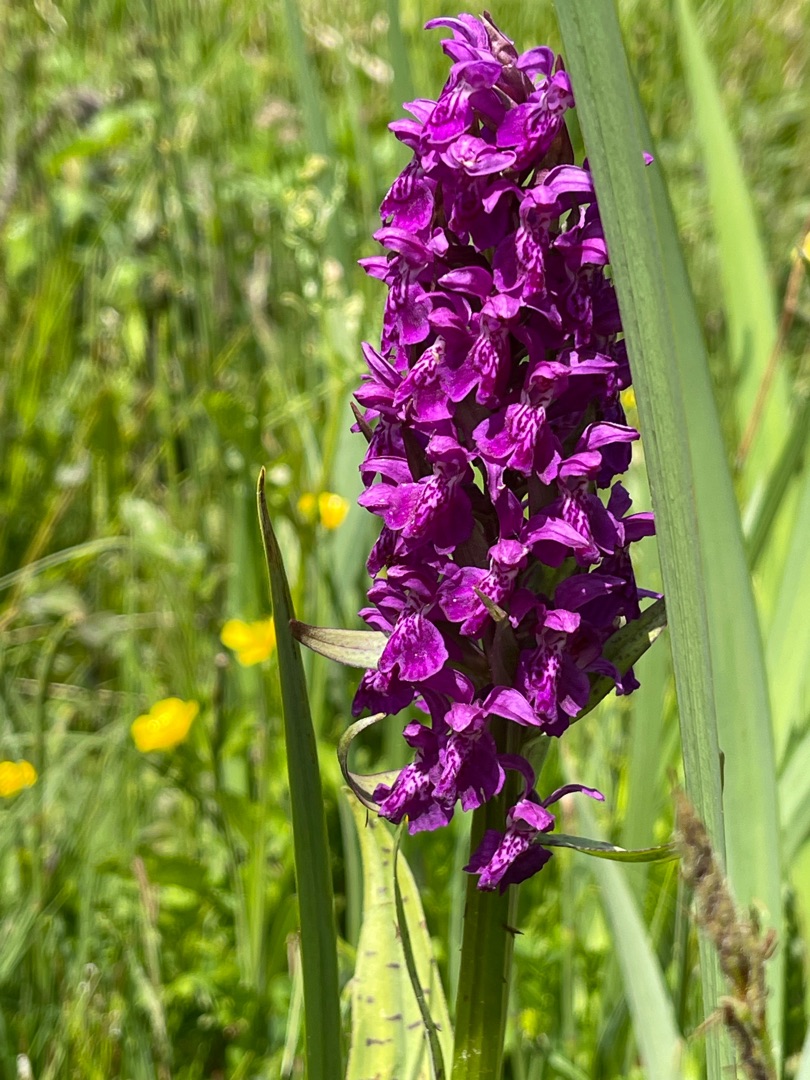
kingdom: Plantae
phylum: Tracheophyta
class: Liliopsida
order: Asparagales
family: Orchidaceae
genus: Dactylorhiza
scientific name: Dactylorhiza majalis
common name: Maj-gøgeurt
